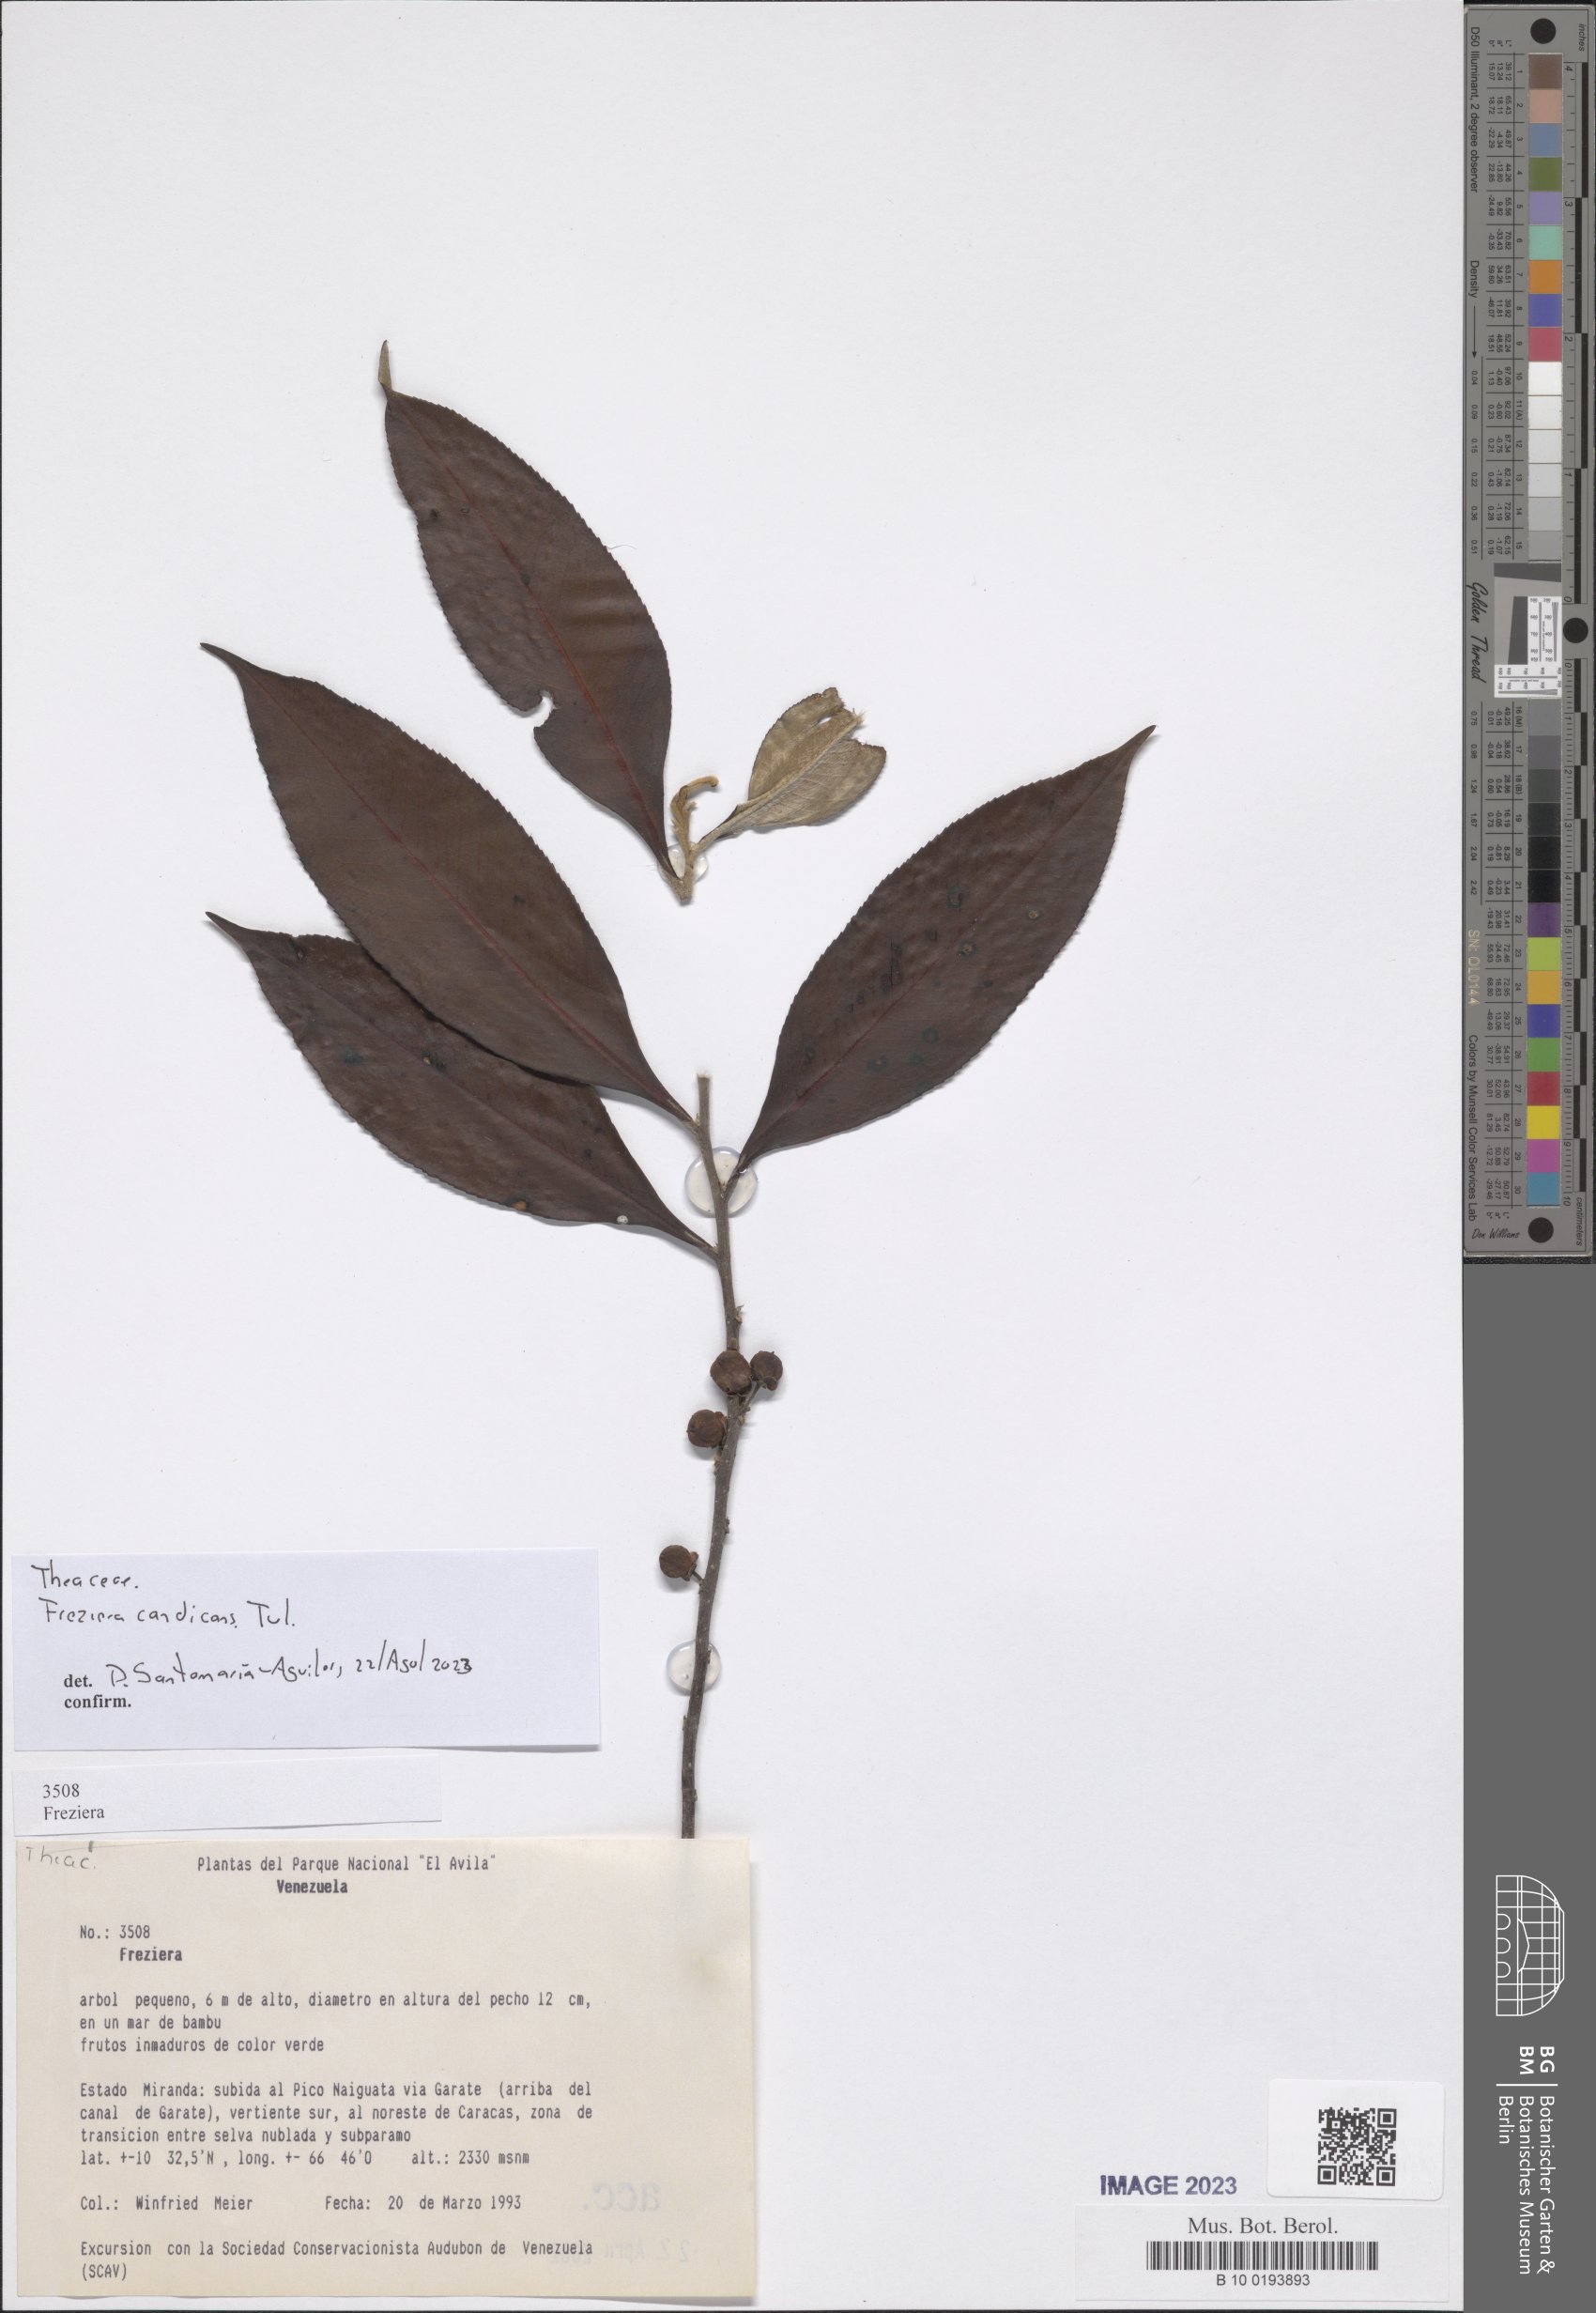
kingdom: Plantae
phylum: Tracheophyta
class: Magnoliopsida
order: Ericales
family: Pentaphylacaceae
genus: Freziera
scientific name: Freziera candicans
